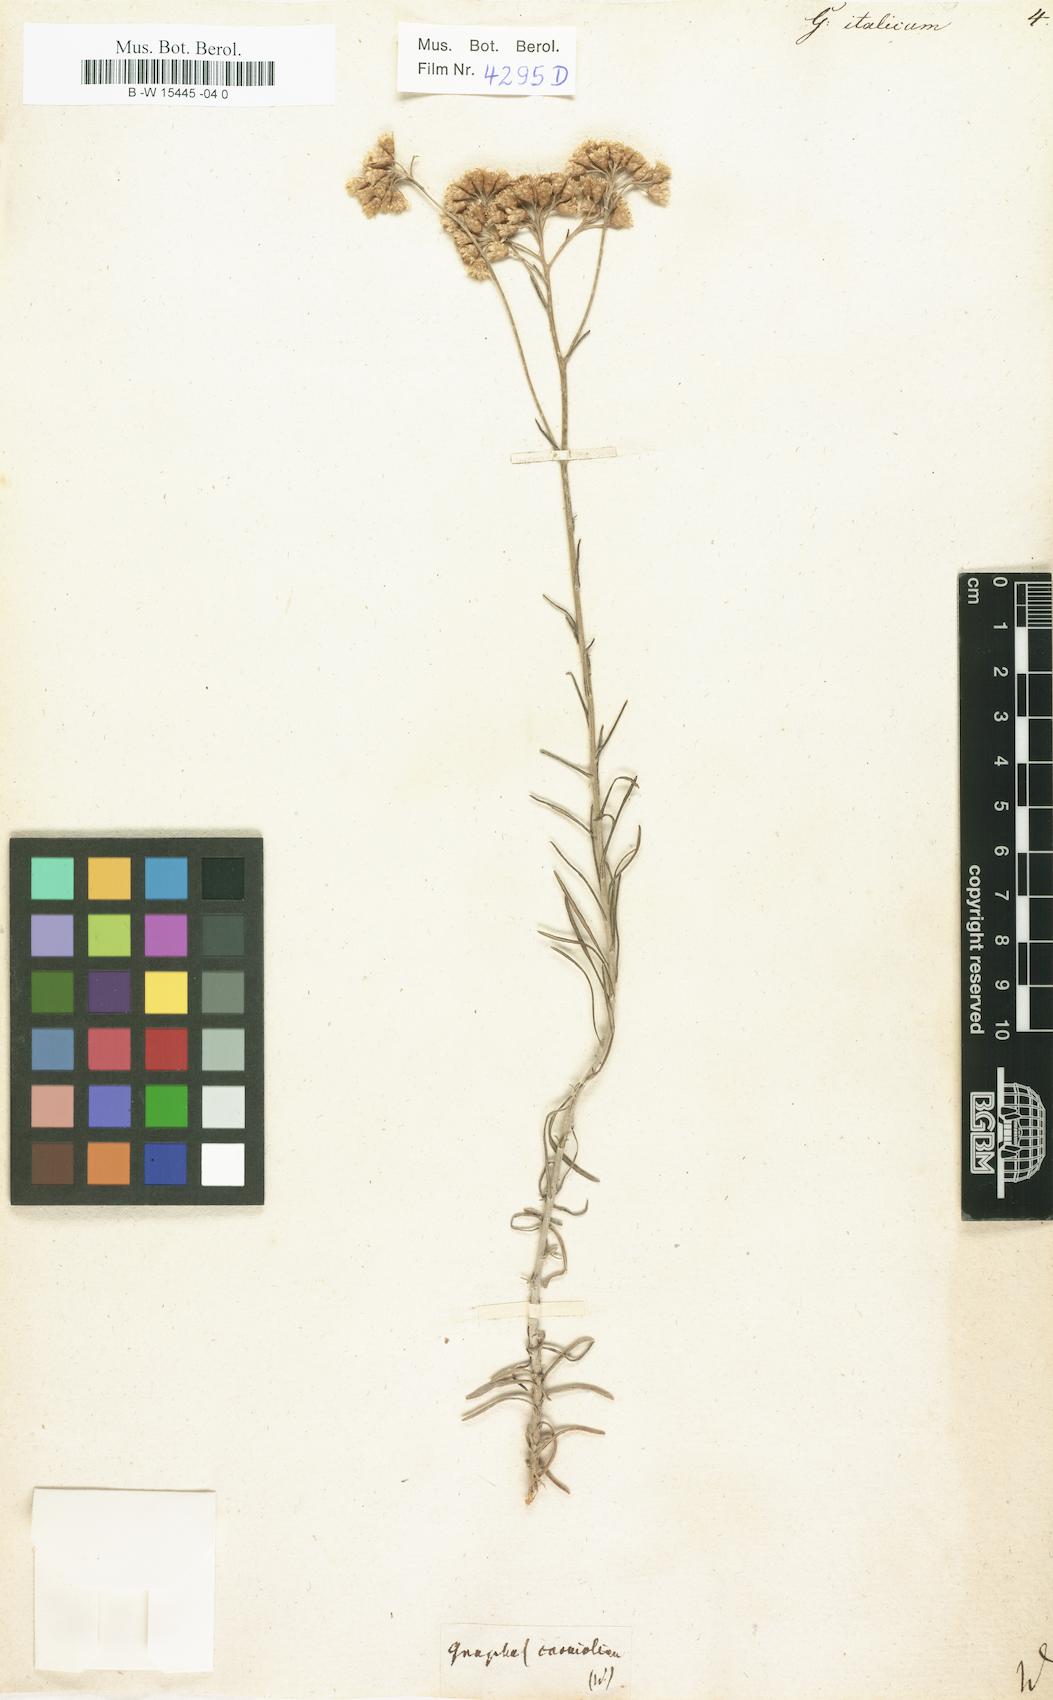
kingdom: Plantae
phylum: Tracheophyta
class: Magnoliopsida
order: Asterales
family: Asteraceae
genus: Helichrysum
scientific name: Helichrysum italicum
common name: Curryplant
